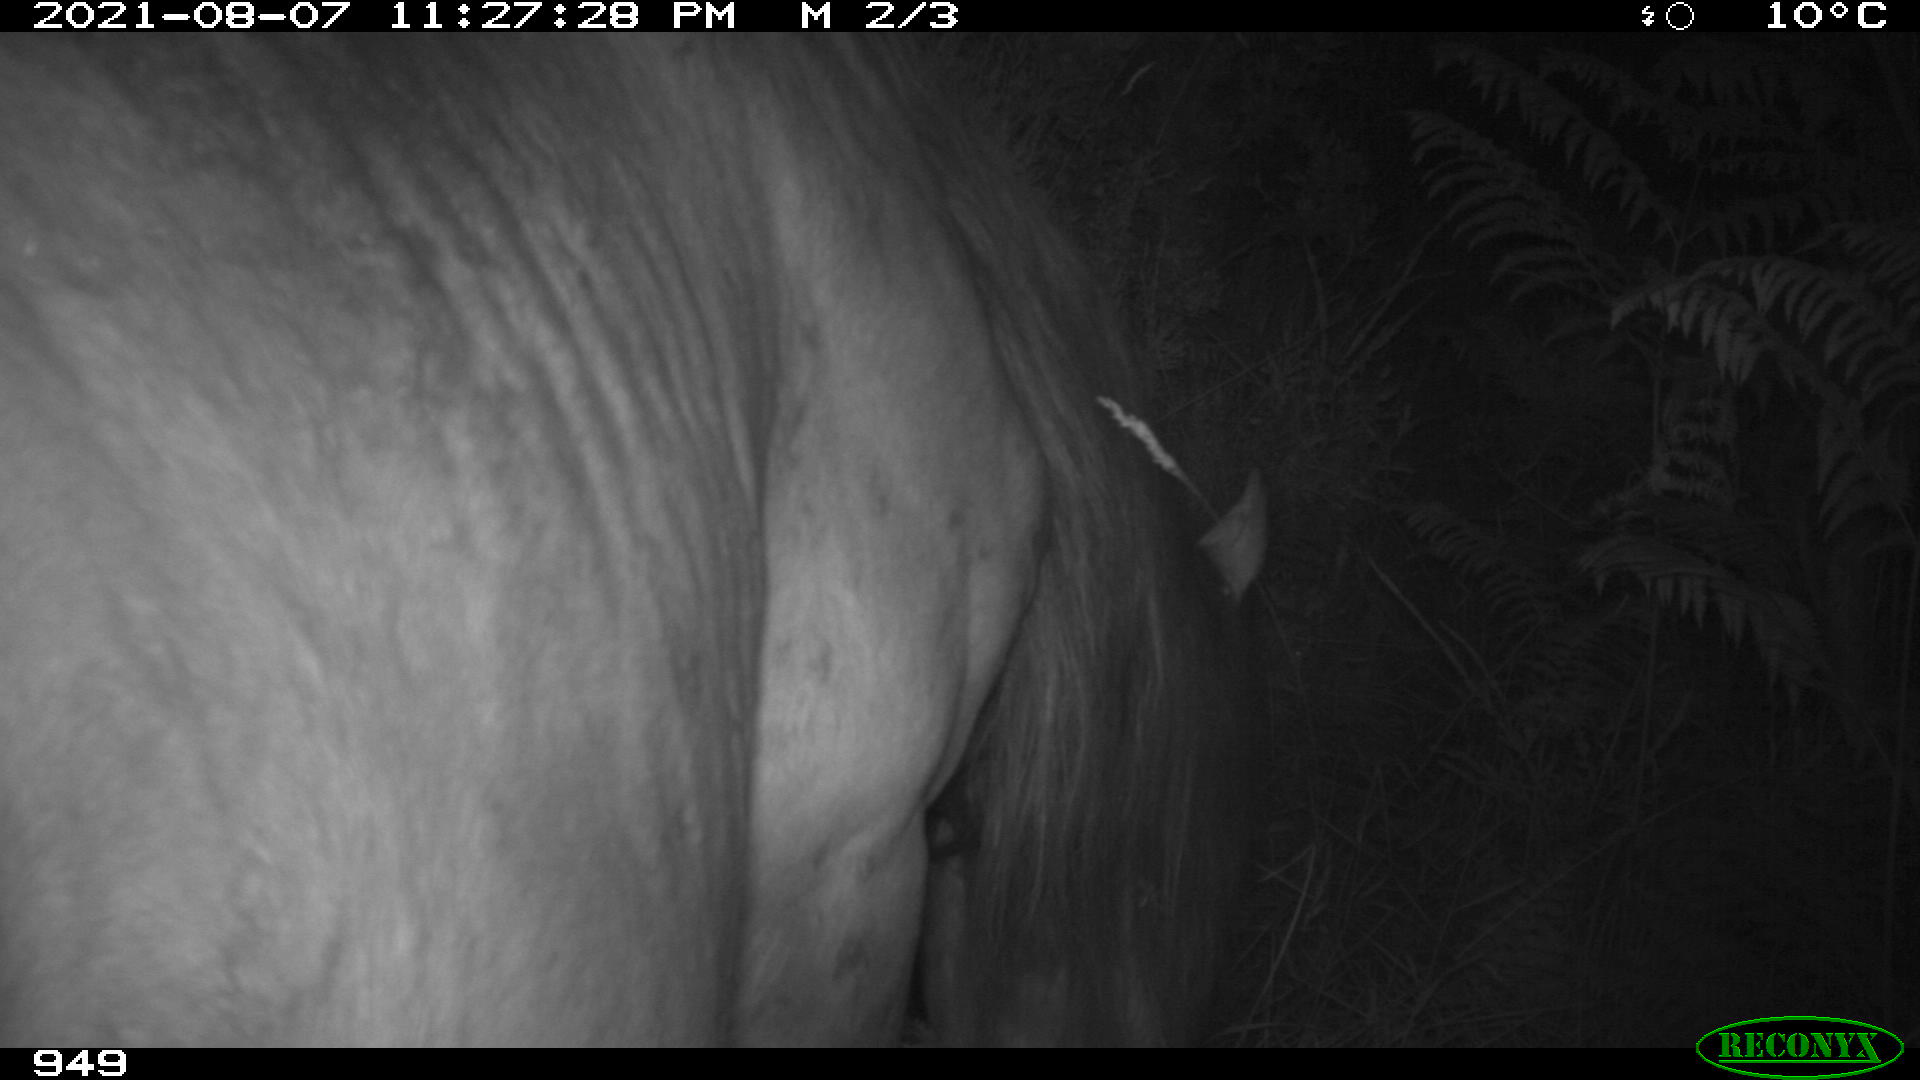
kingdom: Animalia
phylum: Chordata
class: Mammalia
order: Perissodactyla
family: Equidae
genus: Equus
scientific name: Equus caballus
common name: Horse
